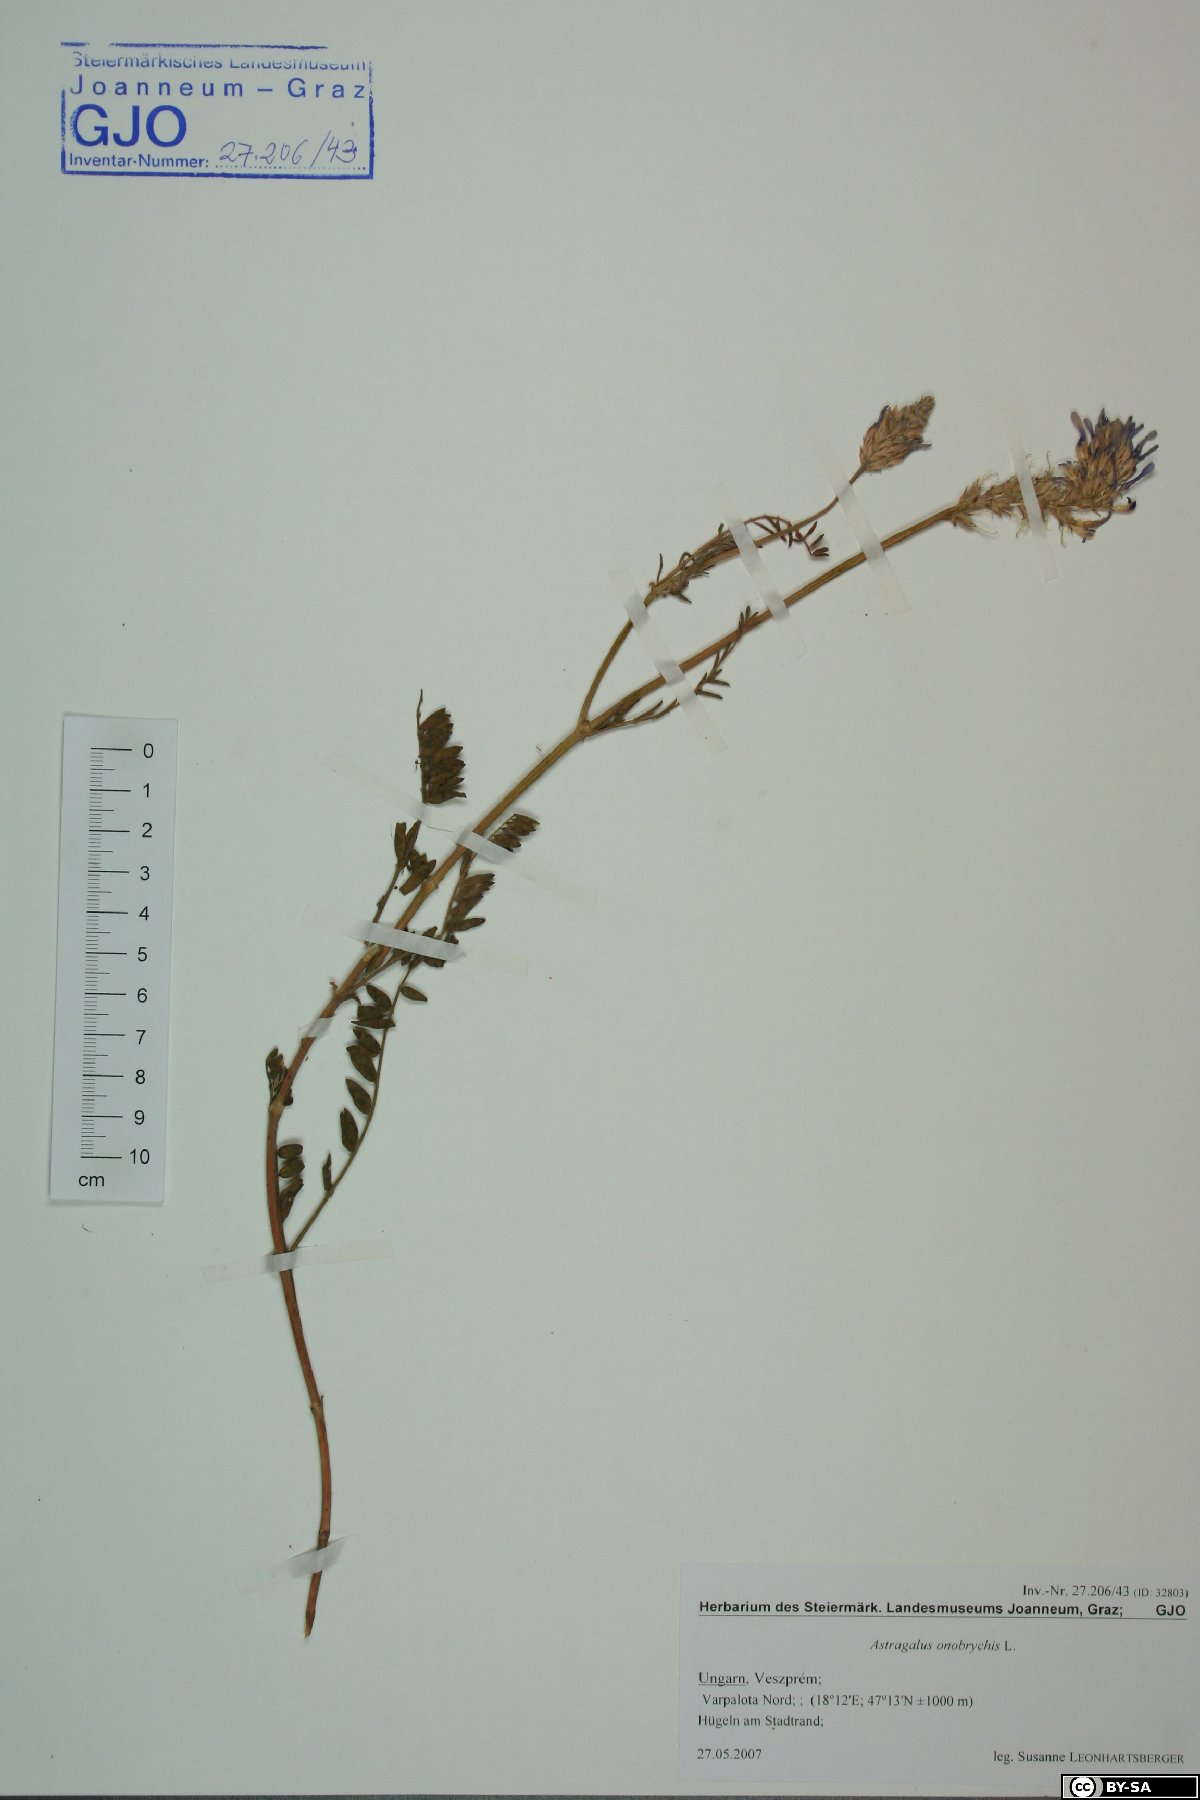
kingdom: Plantae
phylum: Tracheophyta
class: Magnoliopsida
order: Fabales
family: Fabaceae
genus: Astragalus
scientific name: Astragalus onobrychis
